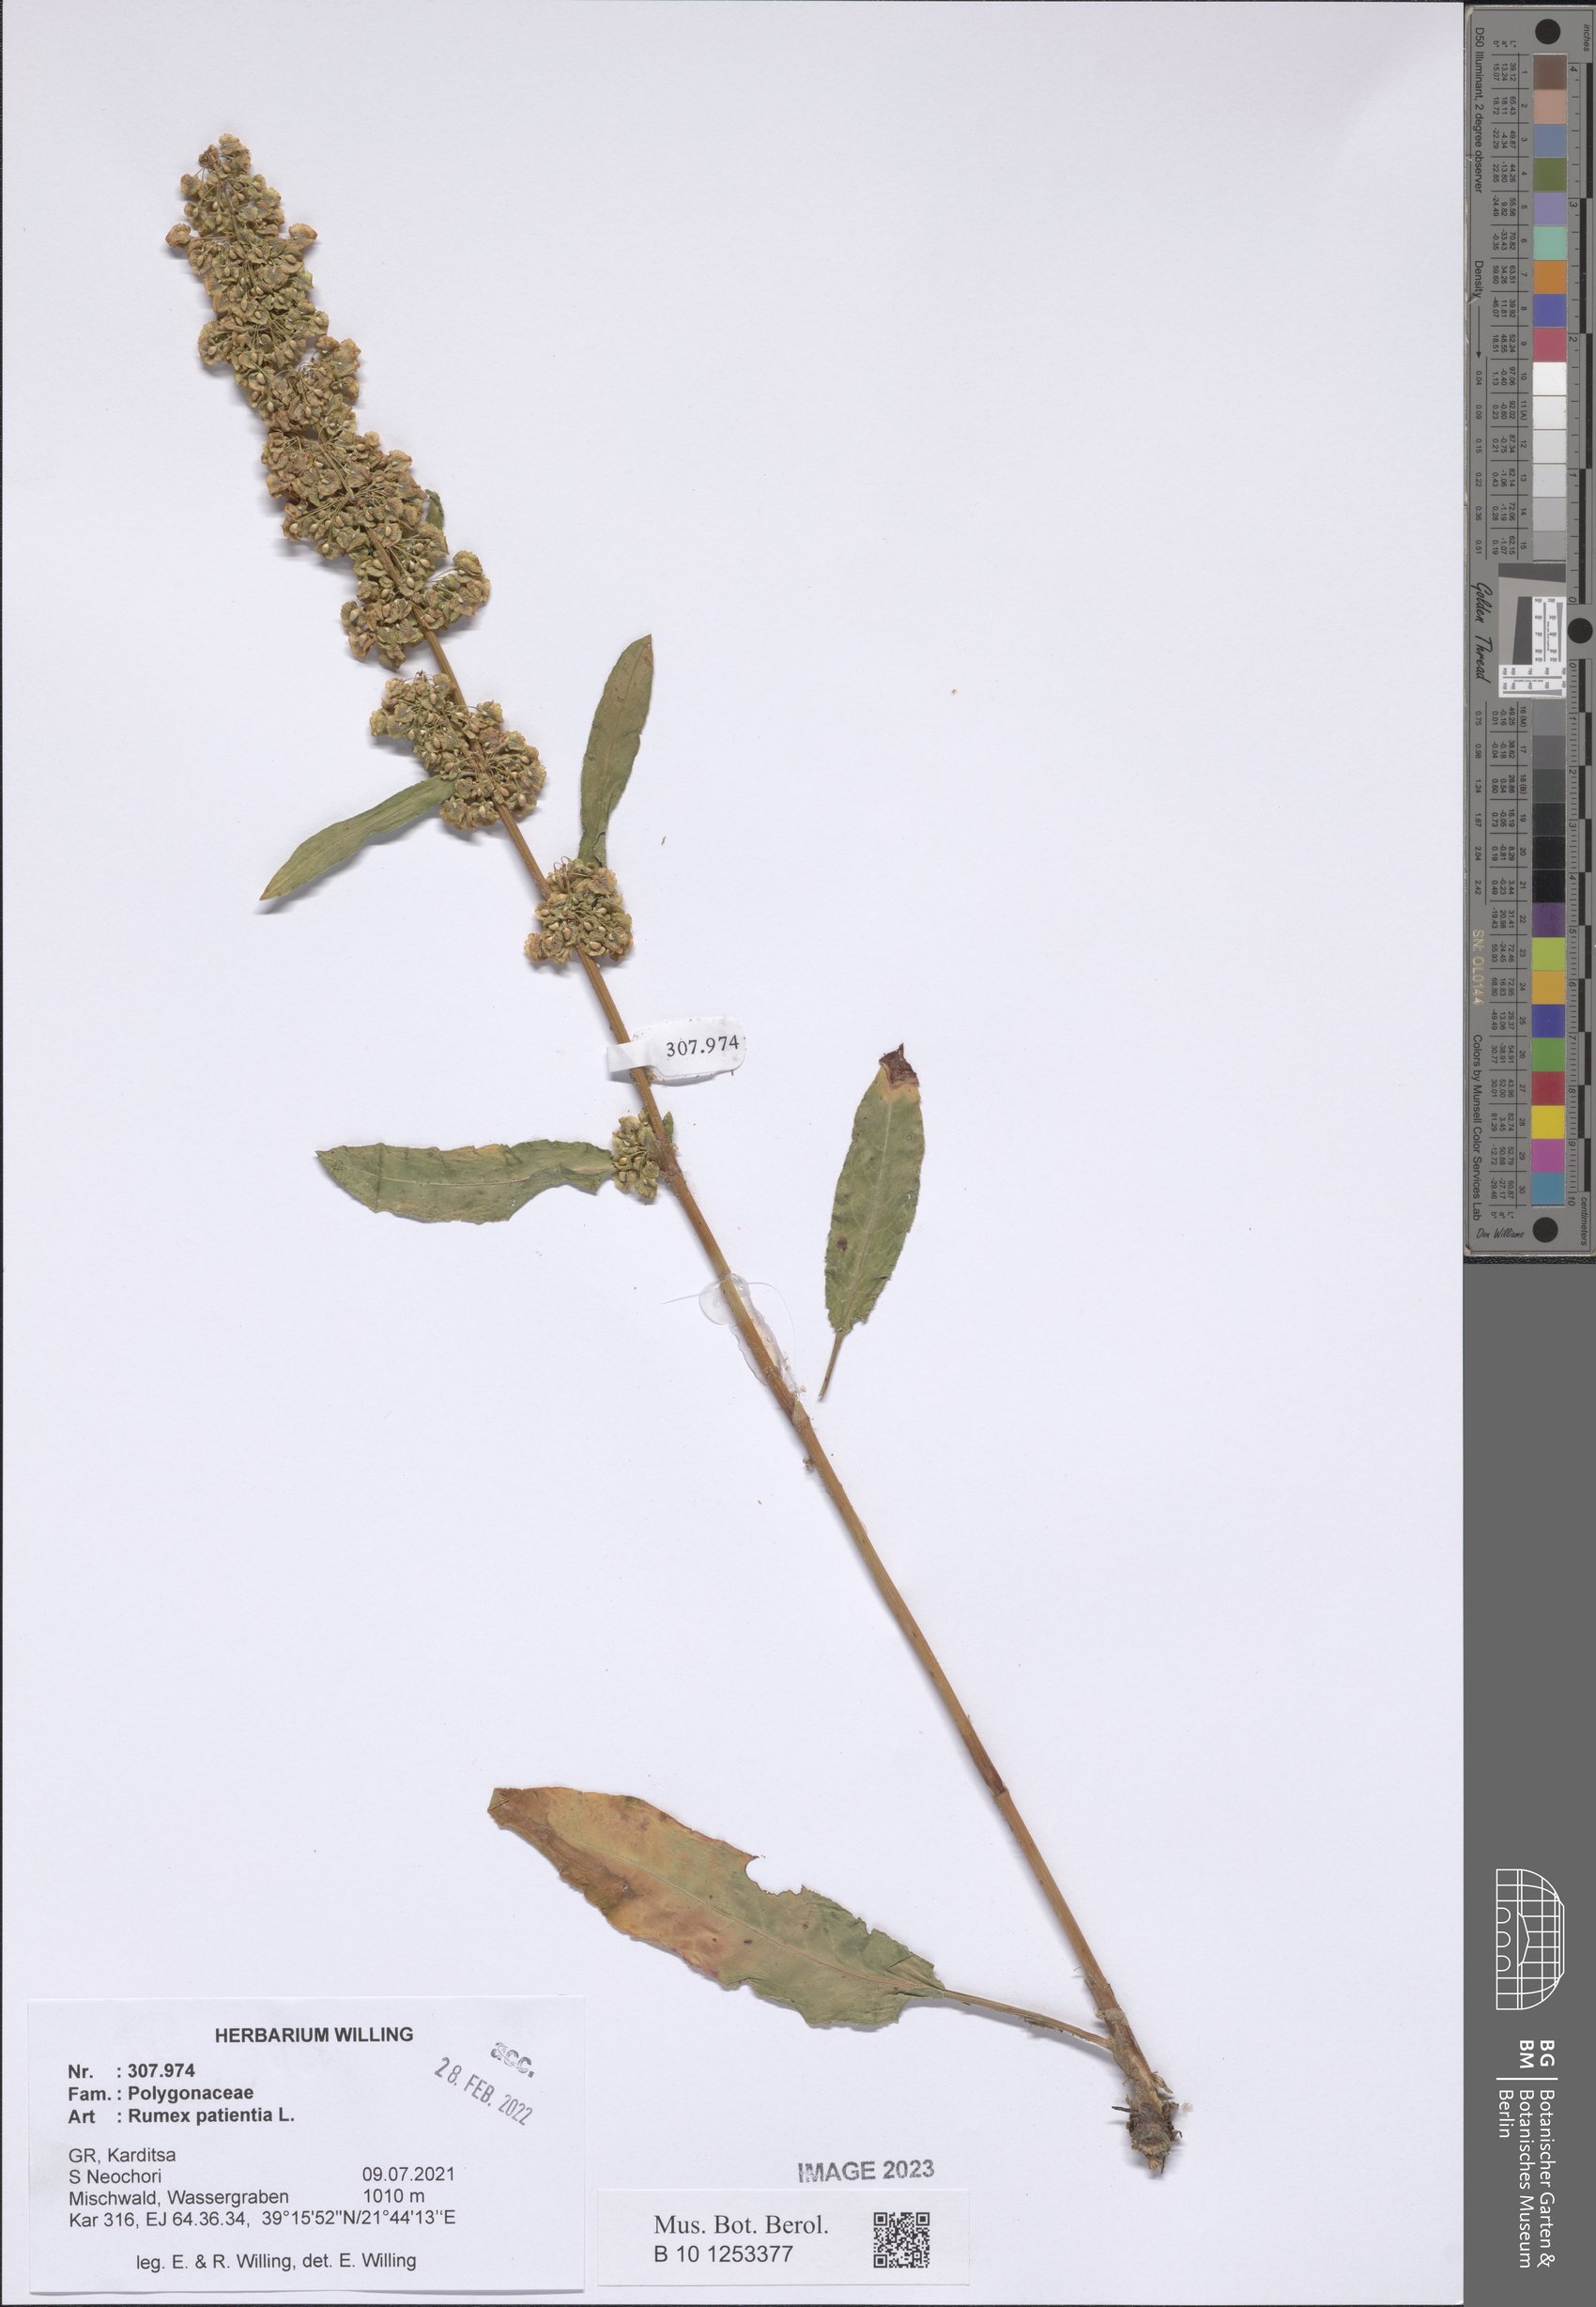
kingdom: Plantae
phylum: Tracheophyta
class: Magnoliopsida
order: Caryophyllales
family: Polygonaceae
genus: Rumex
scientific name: Rumex patientia
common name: Patience dock
